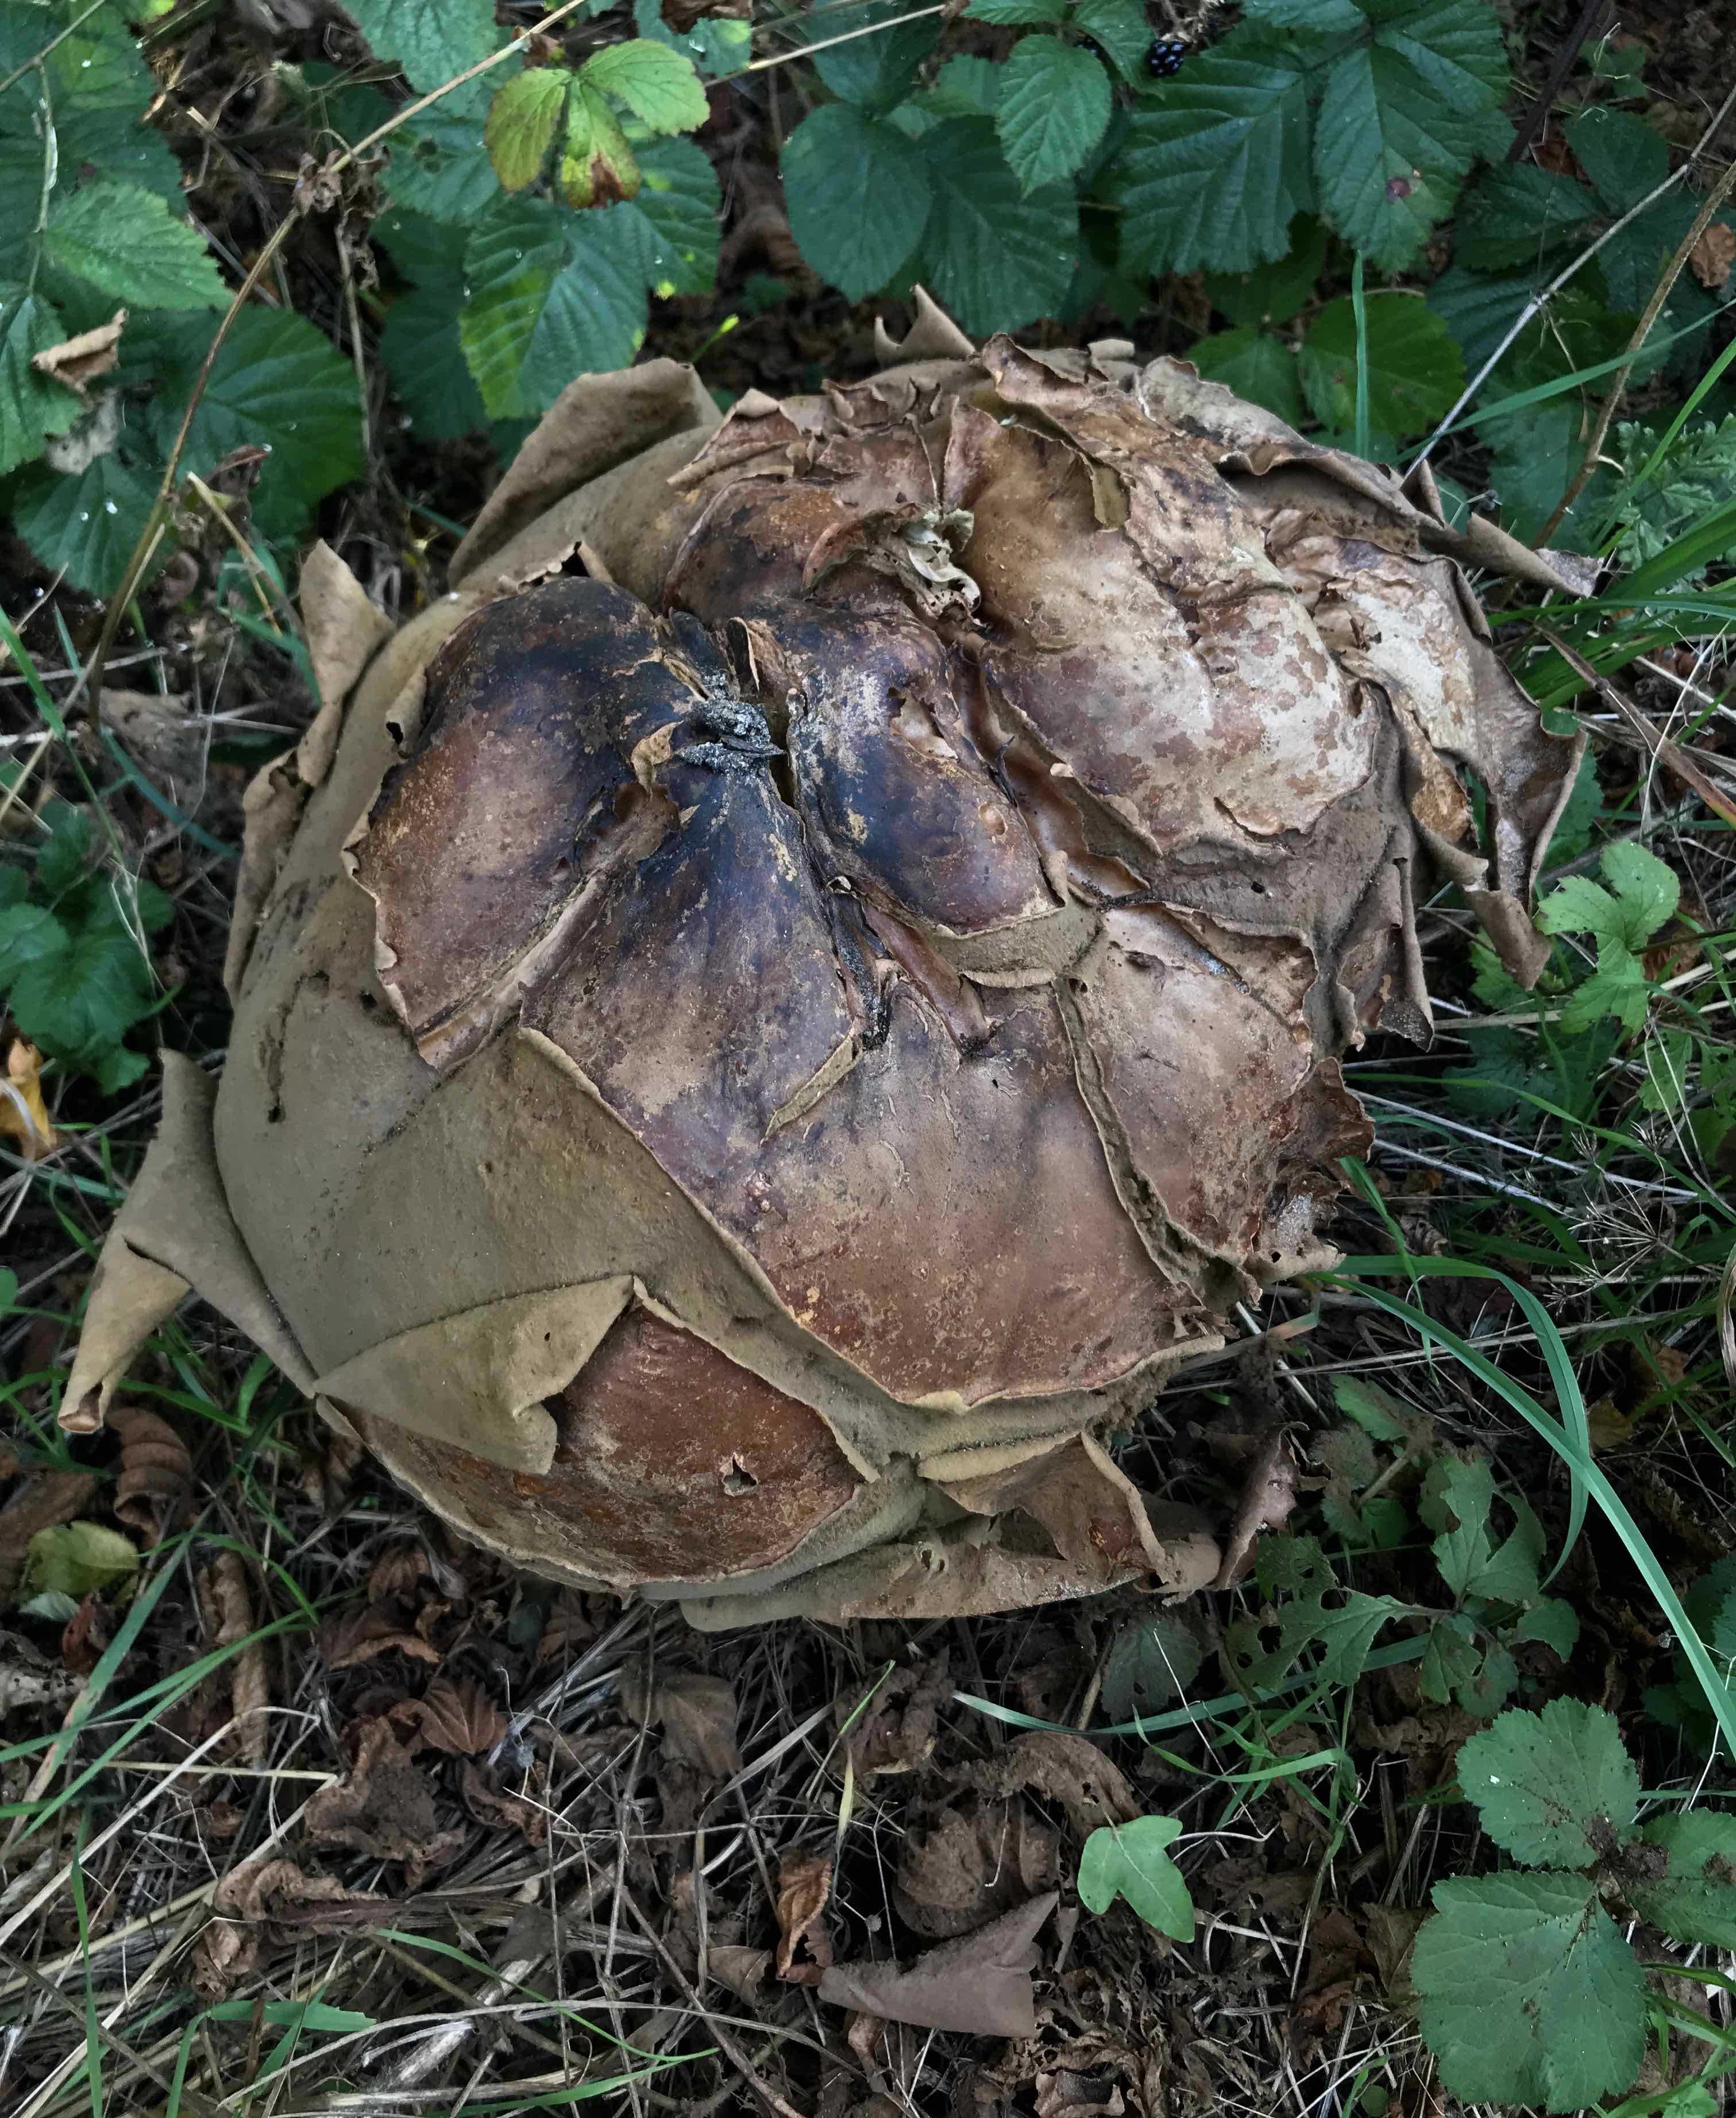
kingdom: Fungi
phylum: Basidiomycota
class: Agaricomycetes
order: Agaricales
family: Lycoperdaceae
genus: Calvatia
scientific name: Calvatia gigantea
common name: kæmpestøvbold
